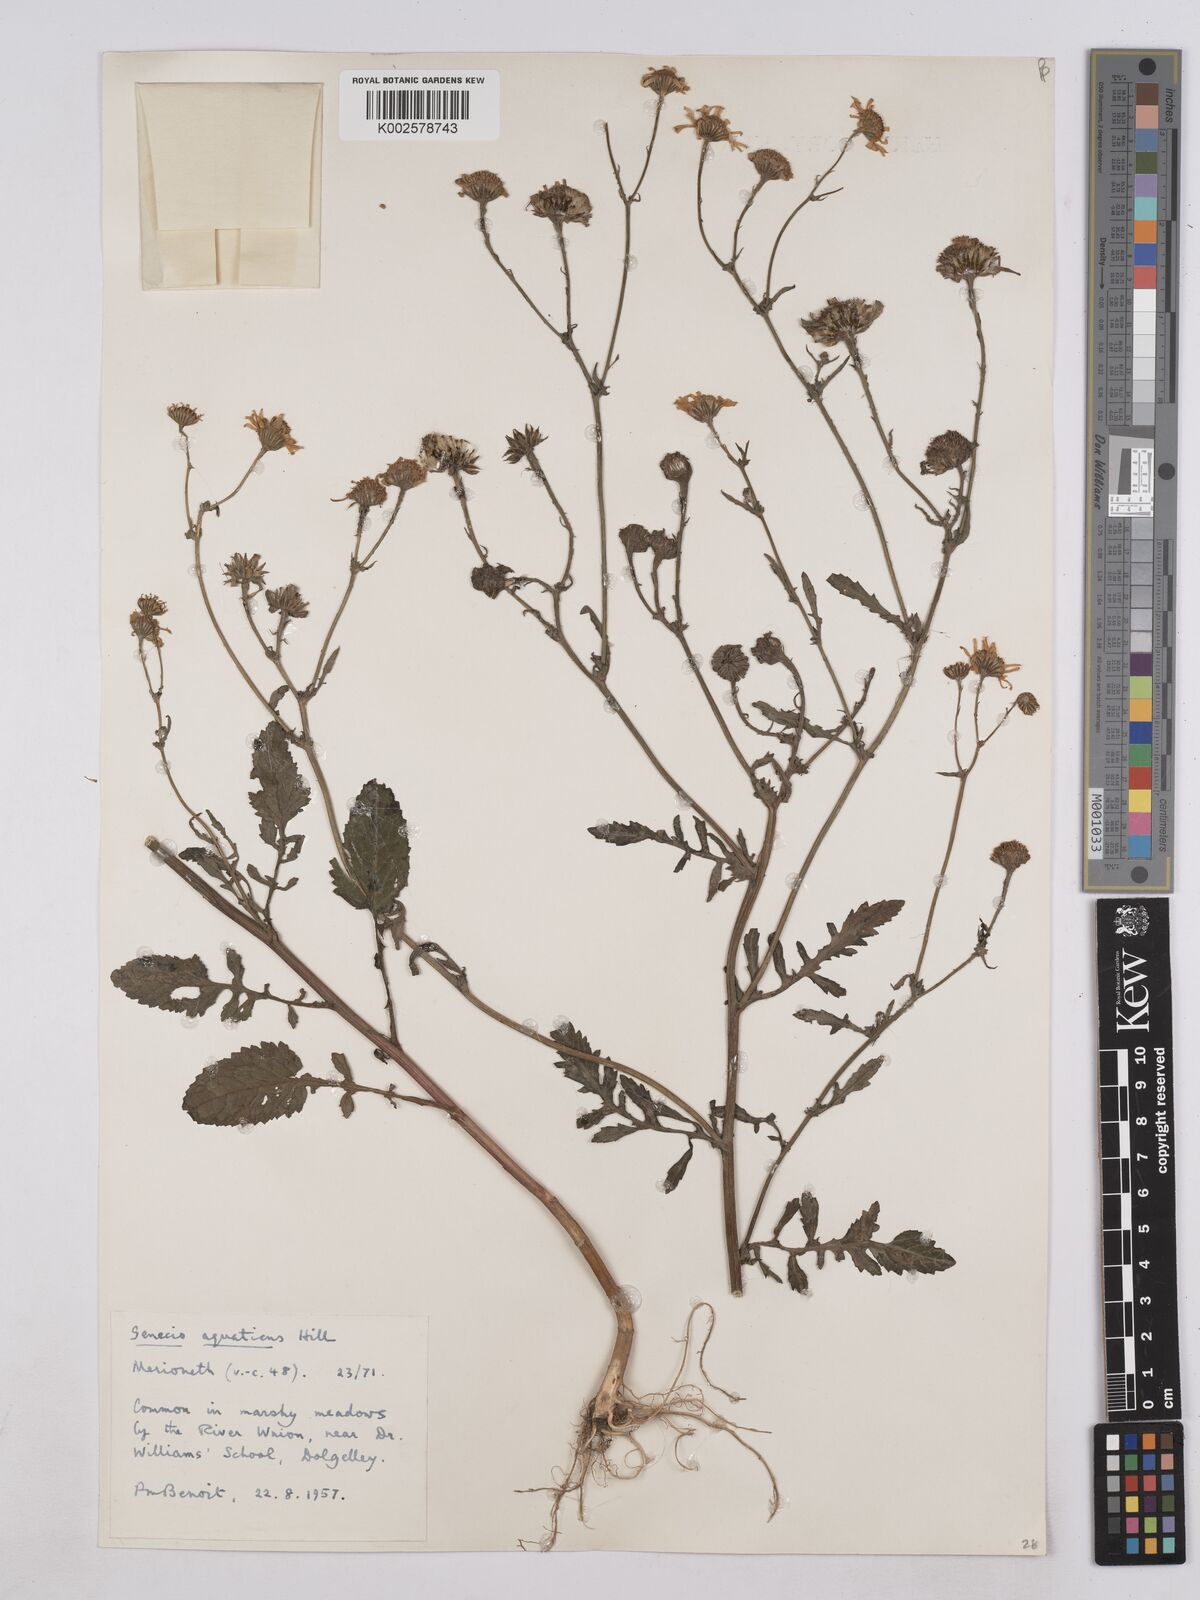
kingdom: Plantae
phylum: Tracheophyta
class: Magnoliopsida
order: Asterales
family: Asteraceae
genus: Jacobaea
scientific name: Jacobaea aquatica
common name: Water ragwort
